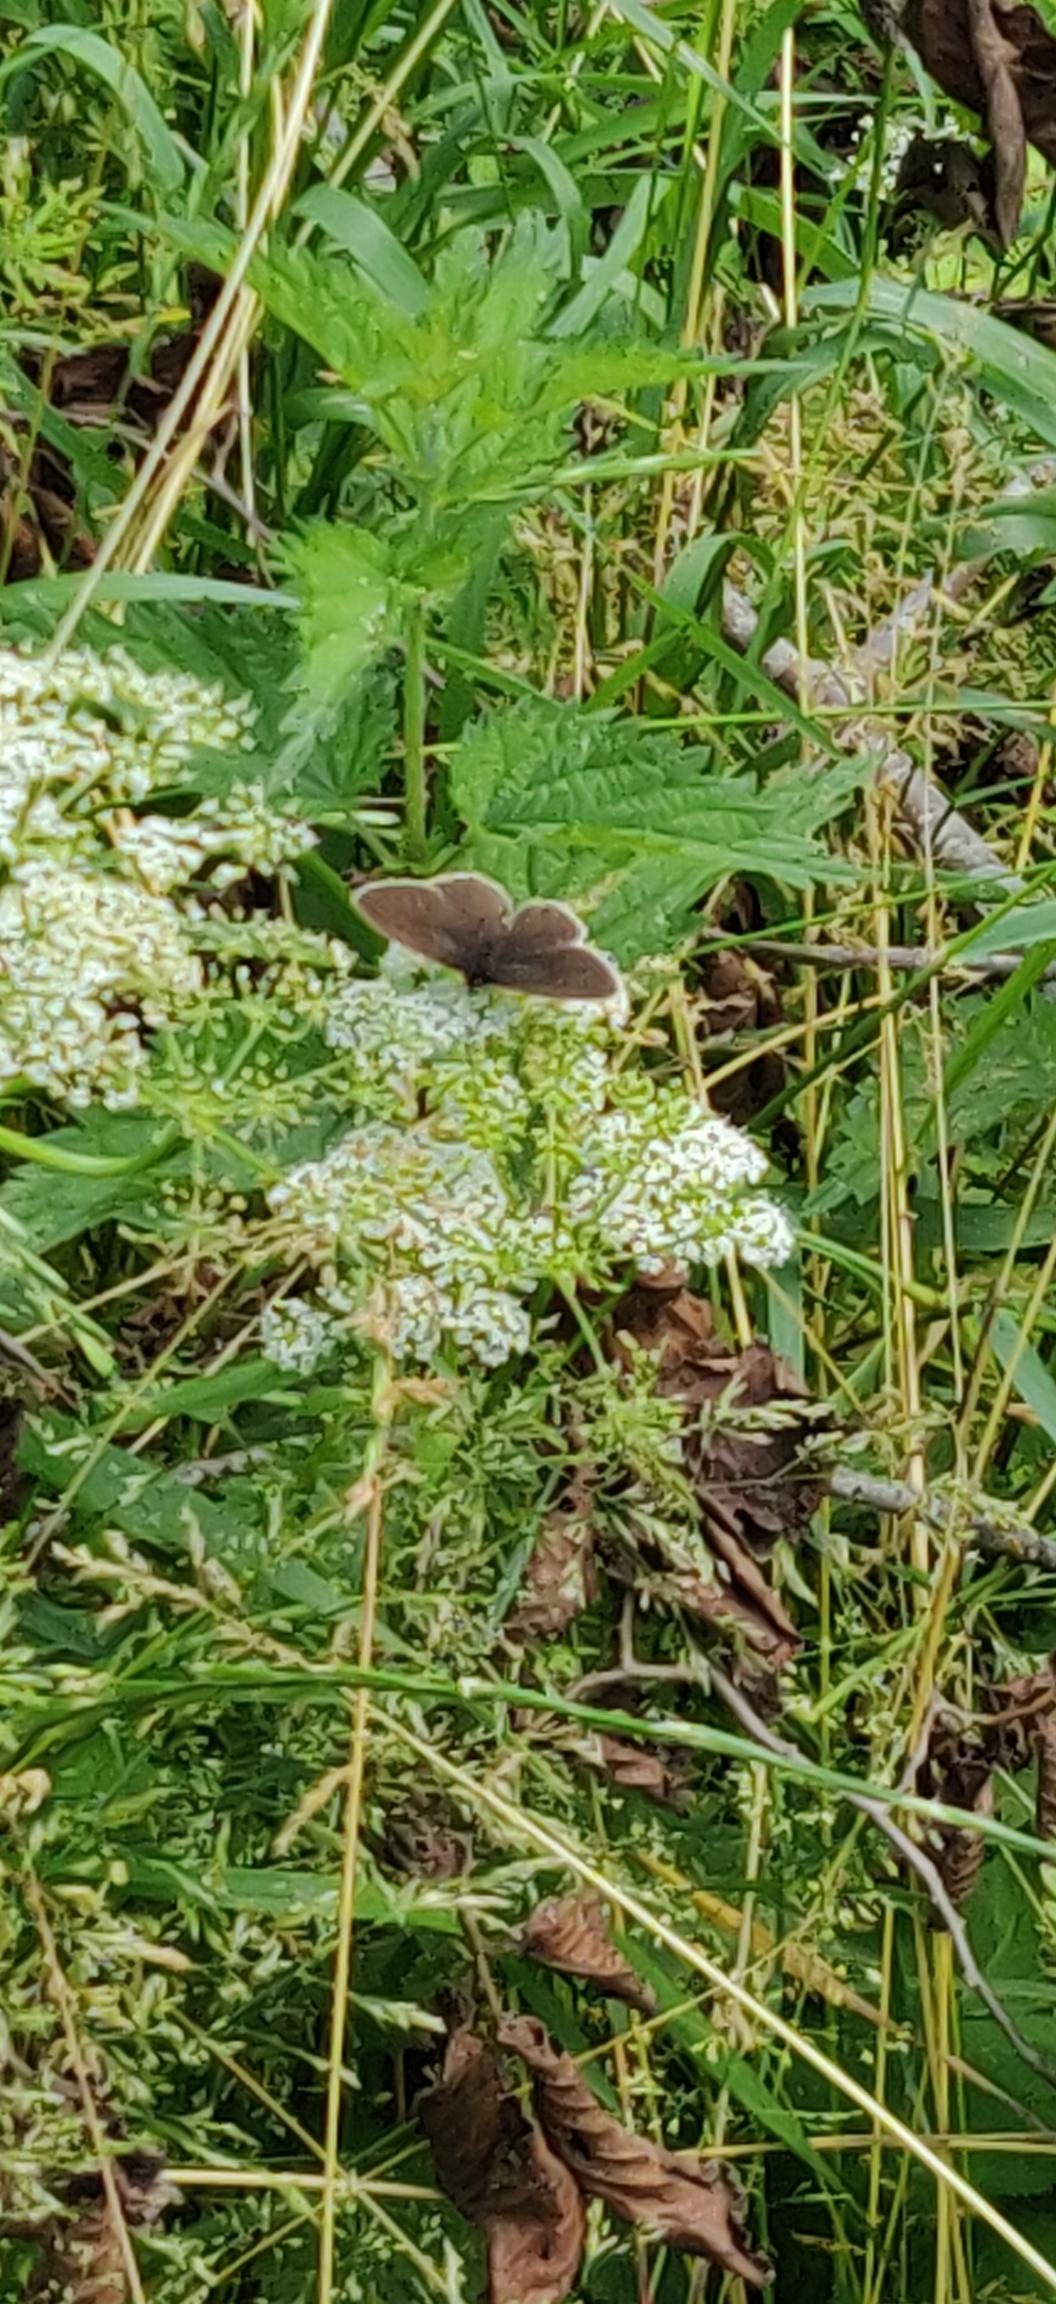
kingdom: Animalia
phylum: Arthropoda
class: Insecta
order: Lepidoptera
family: Nymphalidae
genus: Aphantopus
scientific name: Aphantopus hyperantus
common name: Engrandøje
